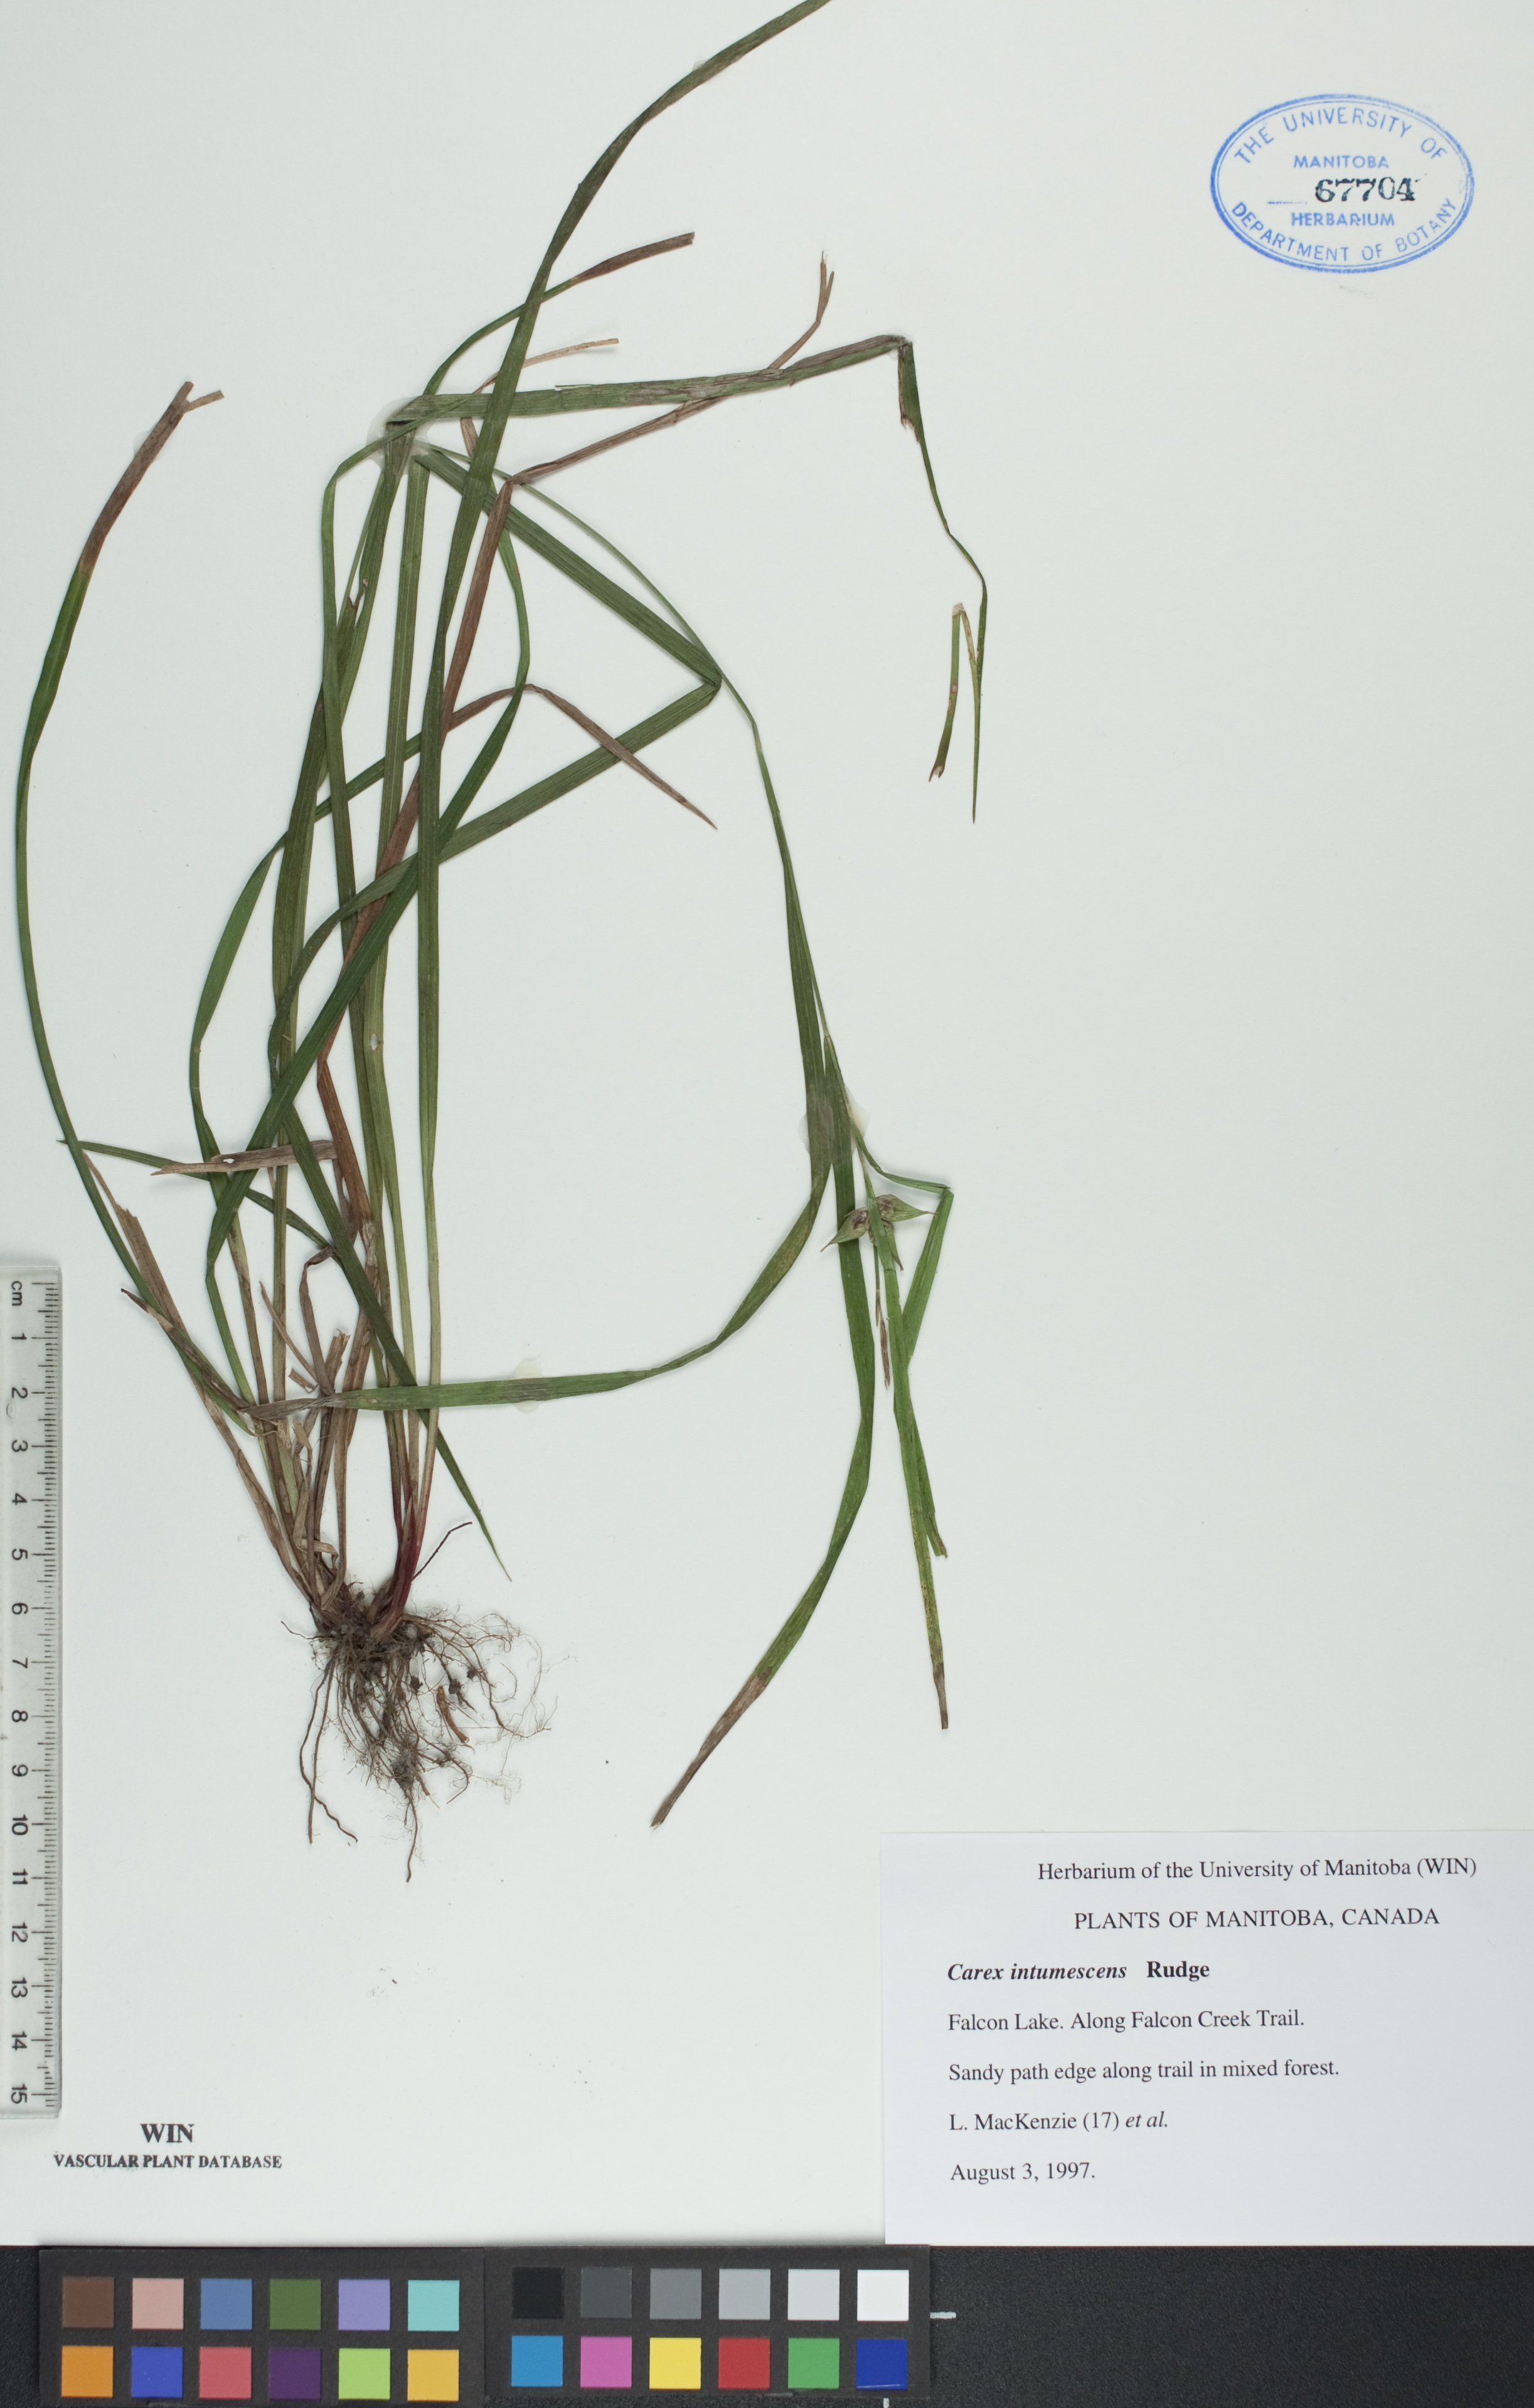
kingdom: Plantae
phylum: Tracheophyta
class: Liliopsida
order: Poales
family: Cyperaceae
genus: Carex
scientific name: Carex intumescens
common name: Greater bladder sedge
